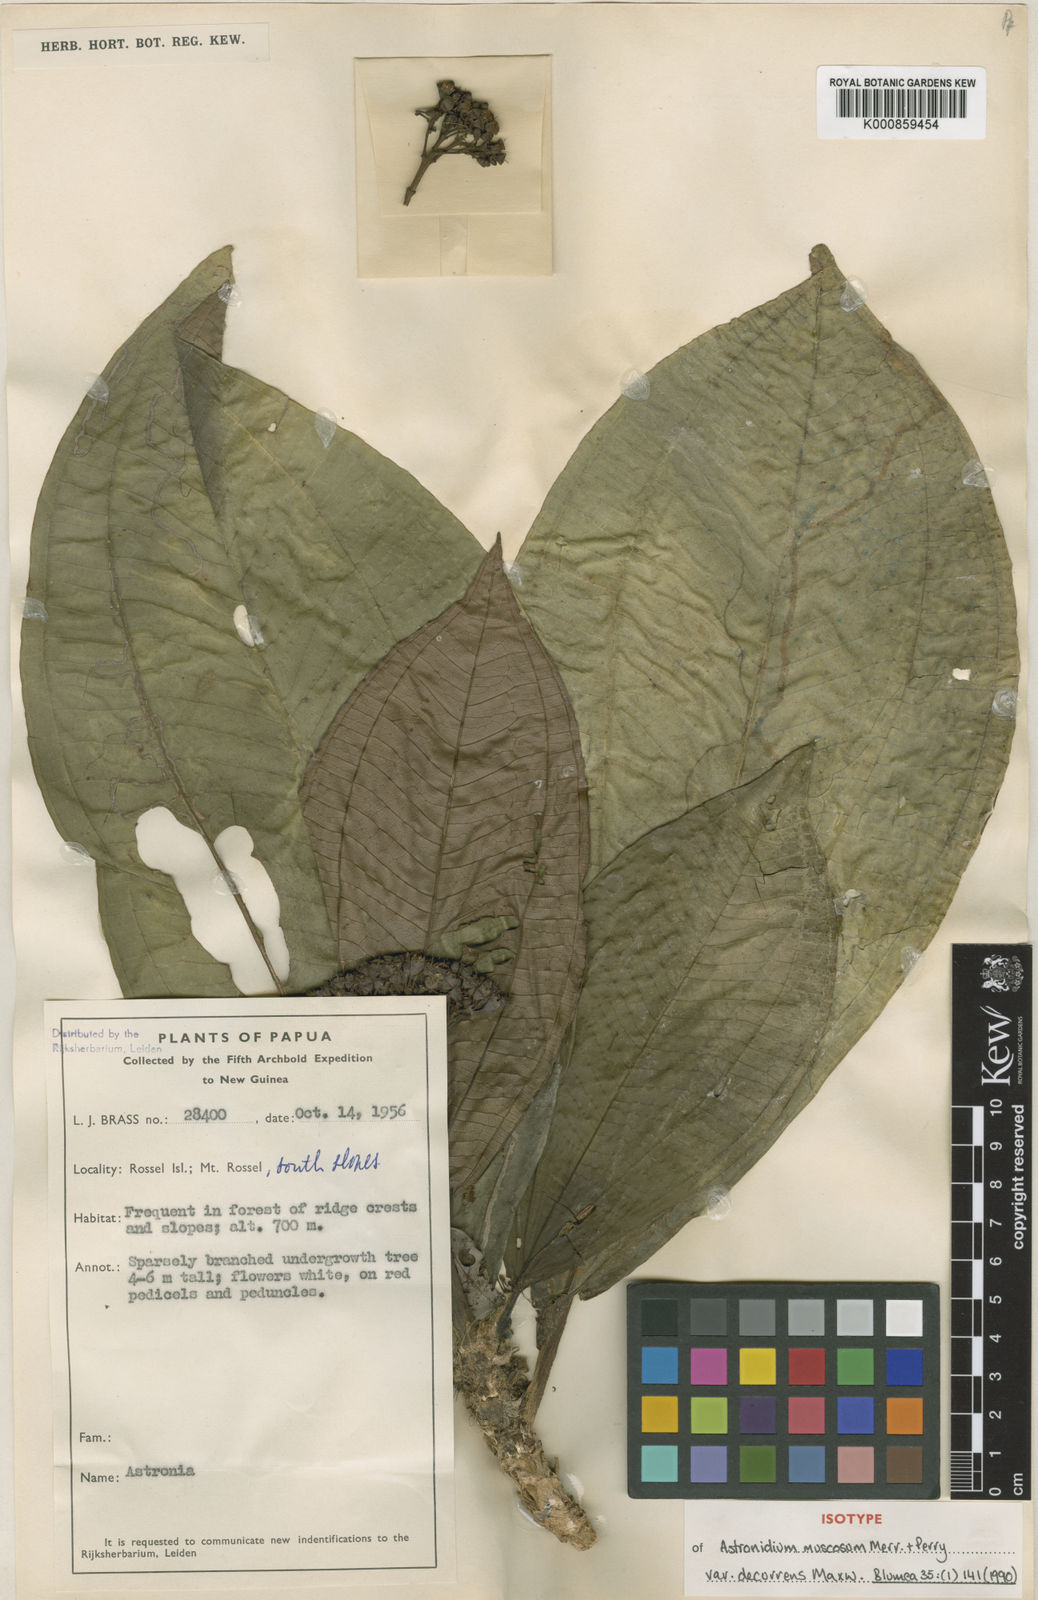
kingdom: Plantae
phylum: Tracheophyta
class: Magnoliopsida
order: Myrtales
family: Melastomataceae
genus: Astronidium
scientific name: Astronidium muscosum
